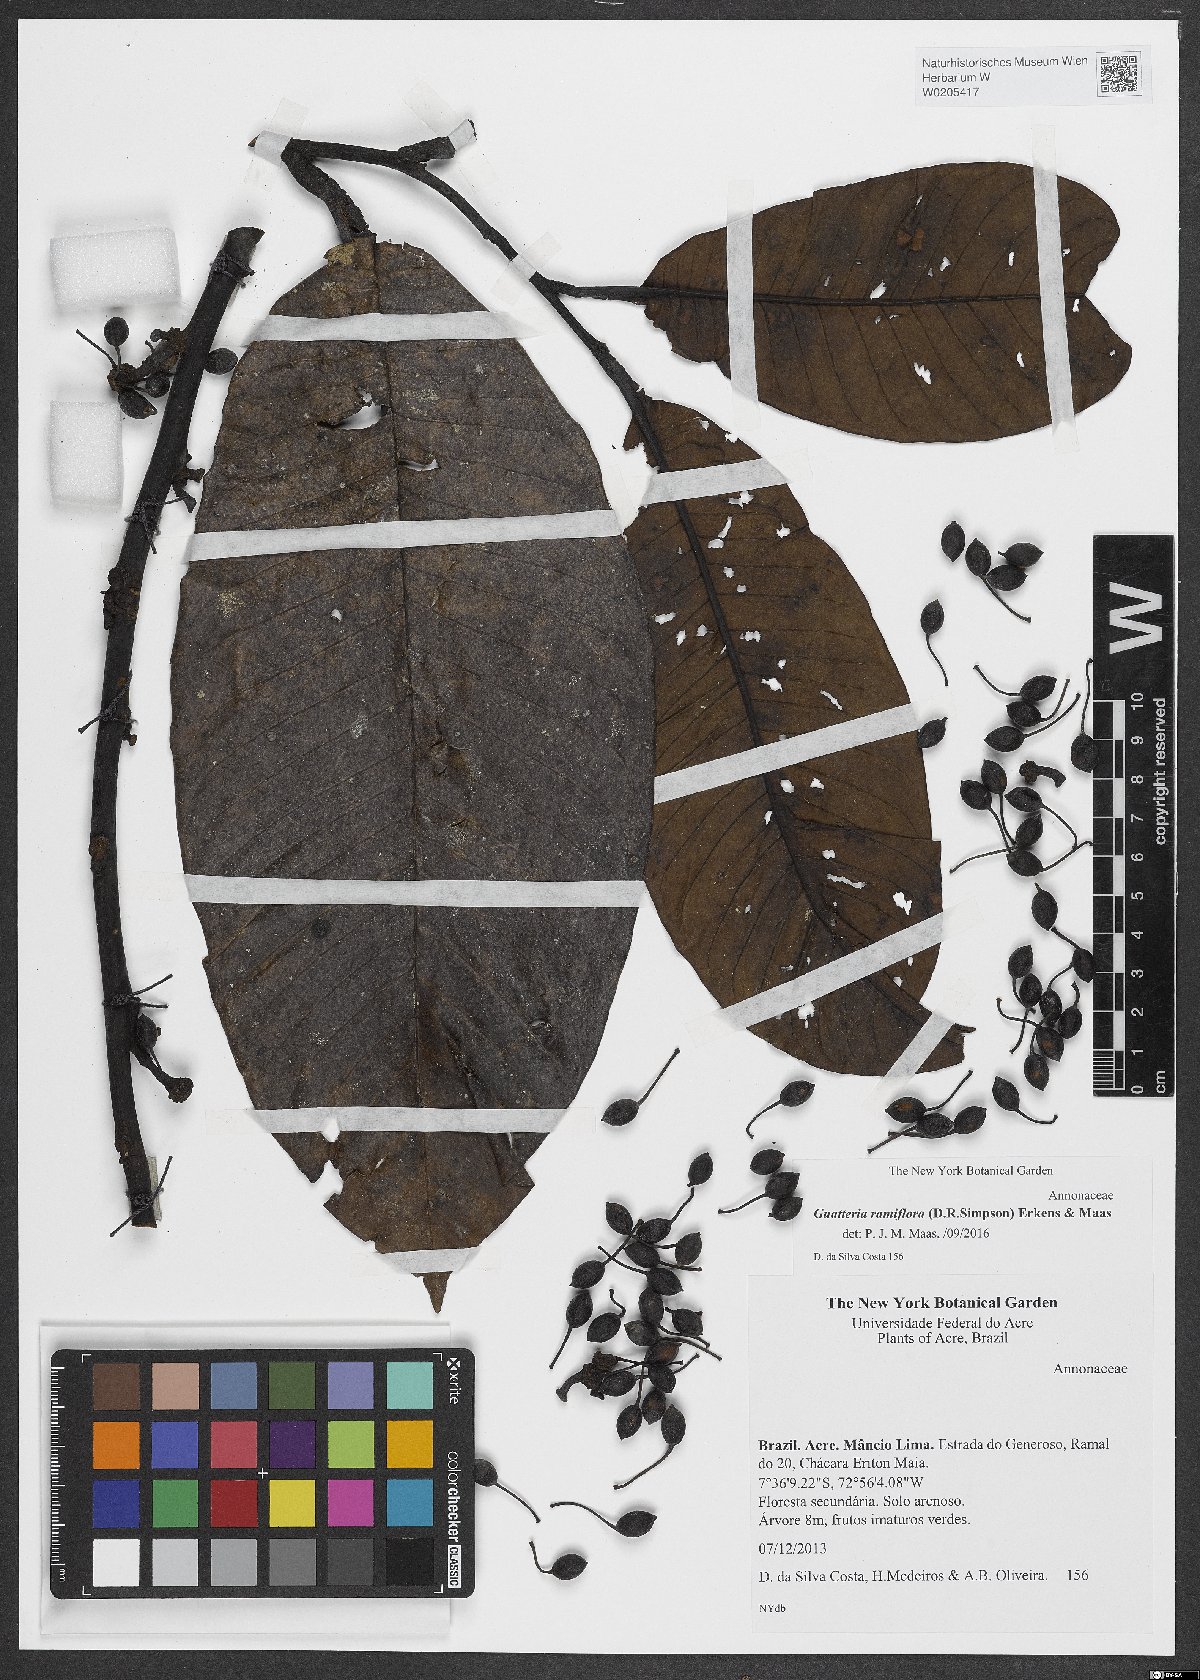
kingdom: Plantae
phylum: Tracheophyta
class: Magnoliopsida
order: Magnoliales
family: Annonaceae
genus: Guatteria
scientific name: Guatteria ramiflora
